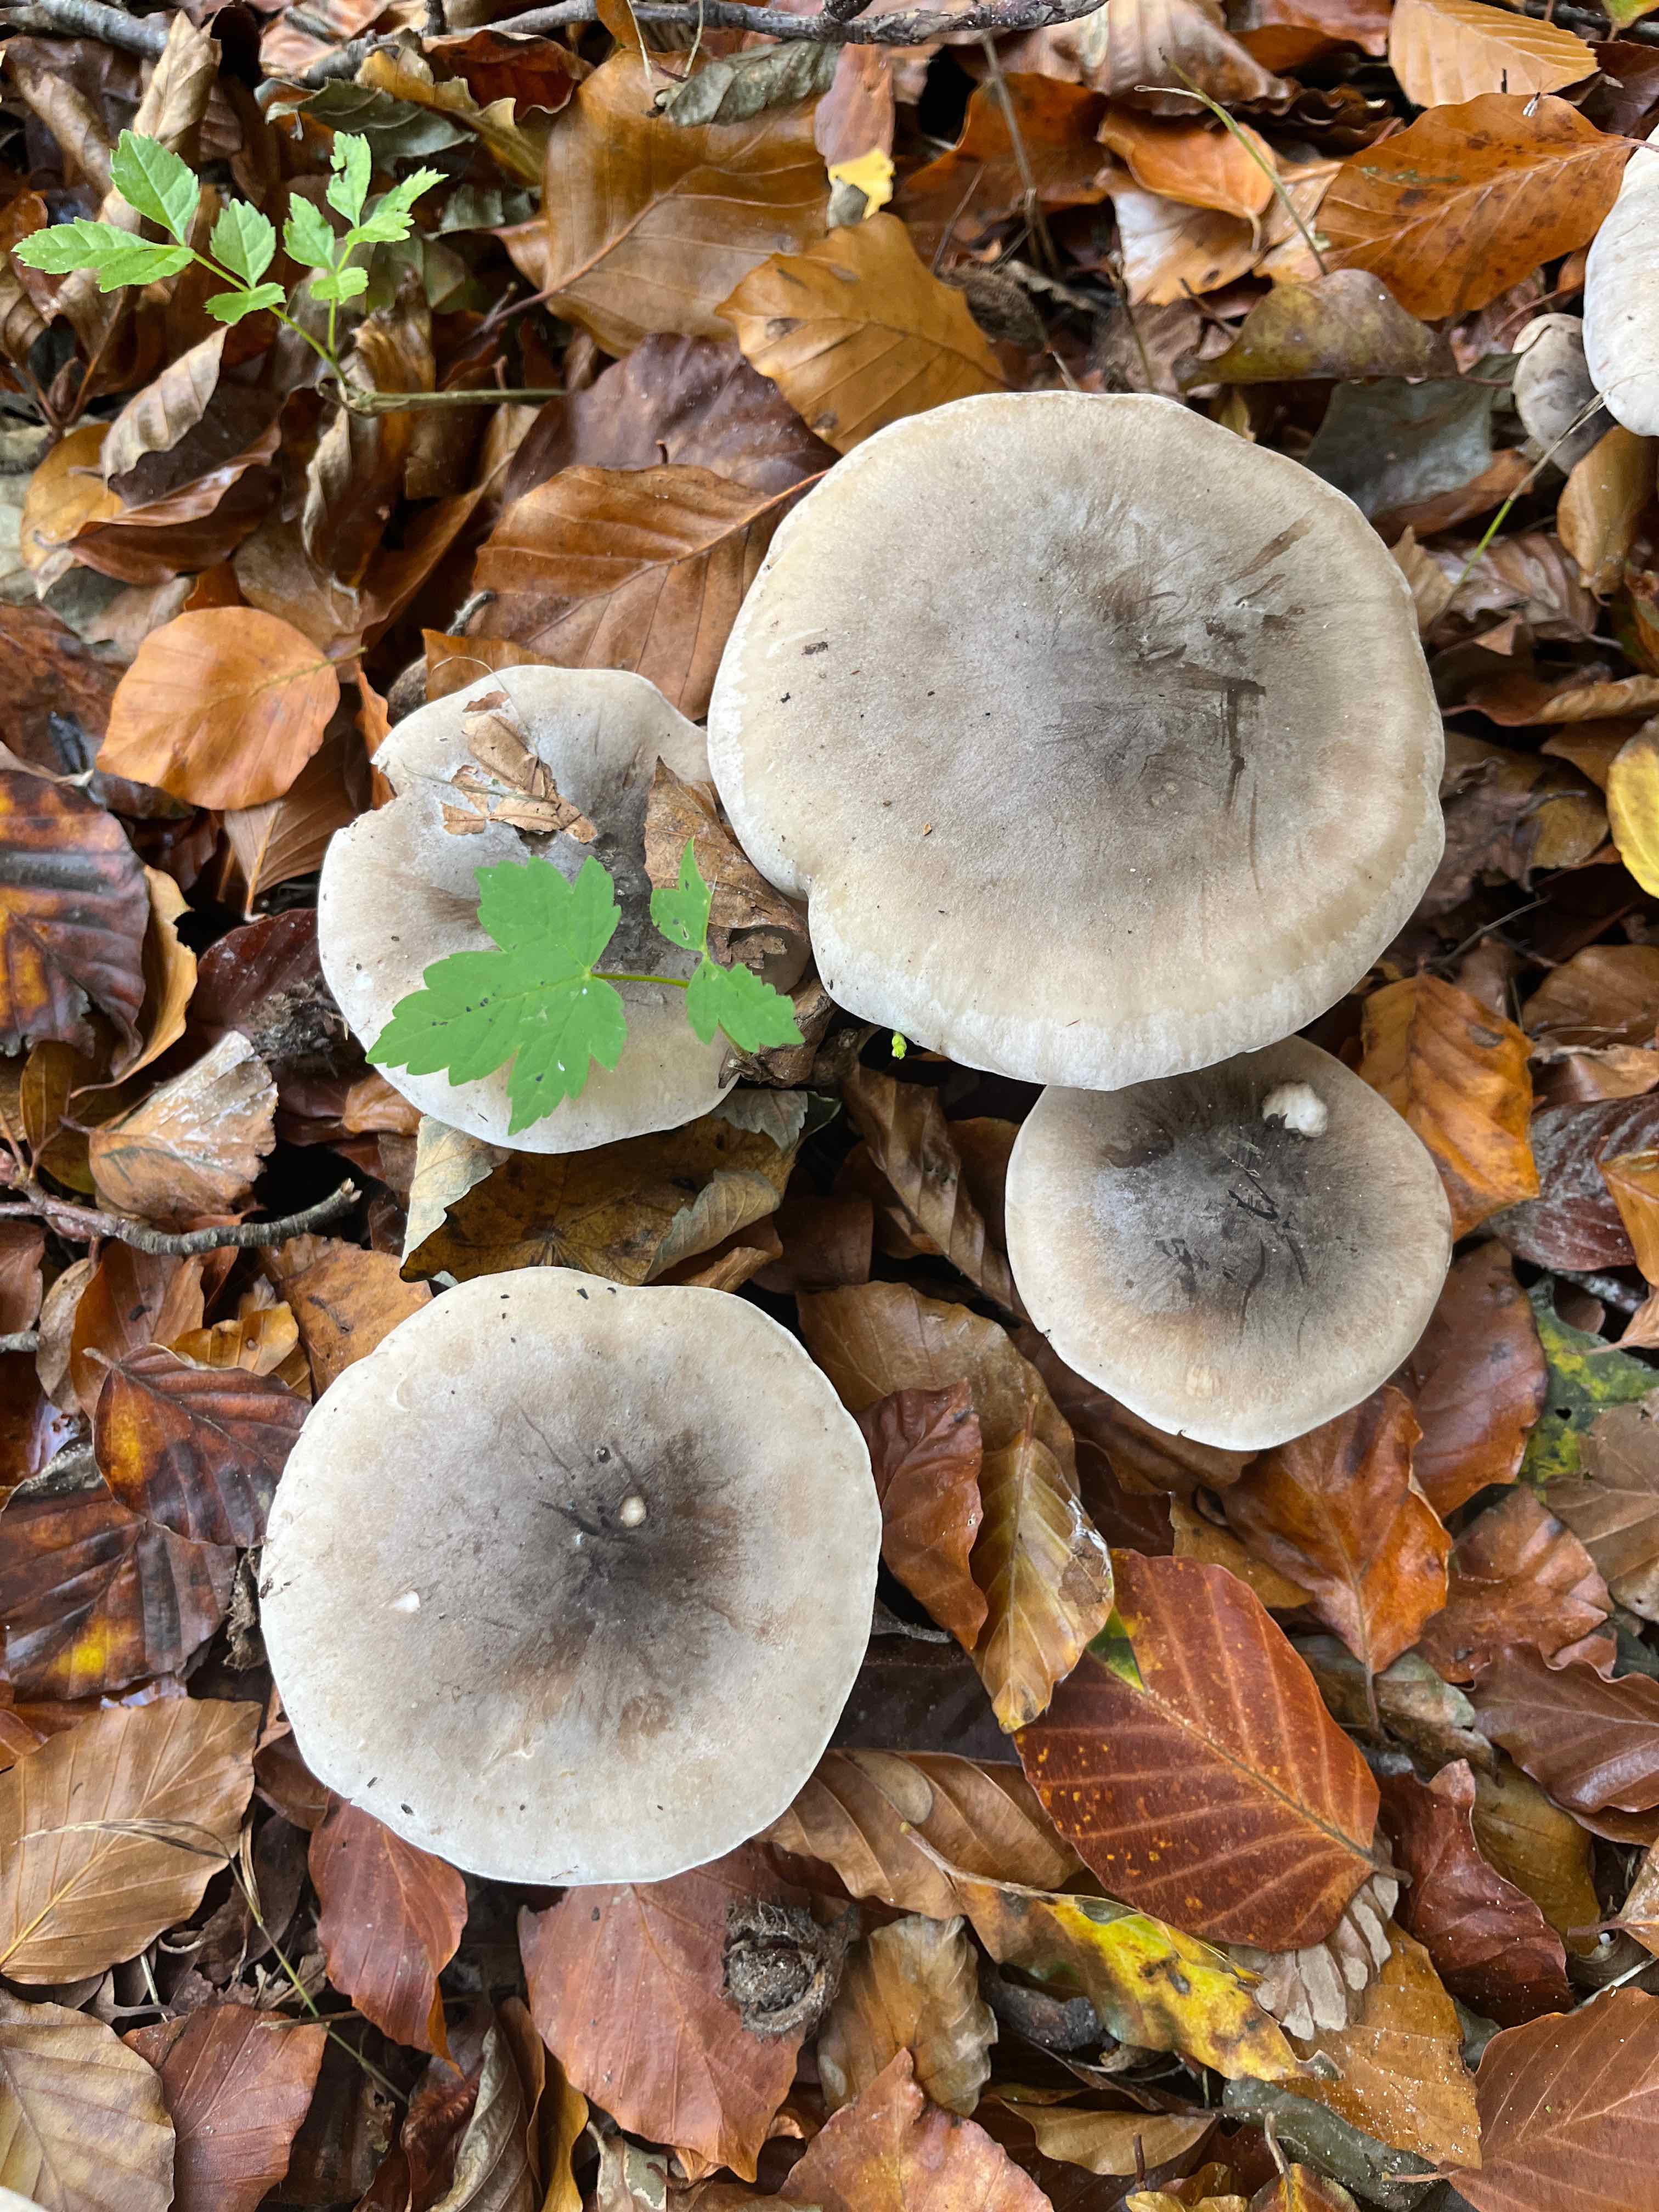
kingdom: Fungi
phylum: Basidiomycota
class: Agaricomycetes
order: Agaricales
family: Tricholomataceae
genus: Clitocybe
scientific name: Clitocybe nebularis
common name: tåge-tragthat
